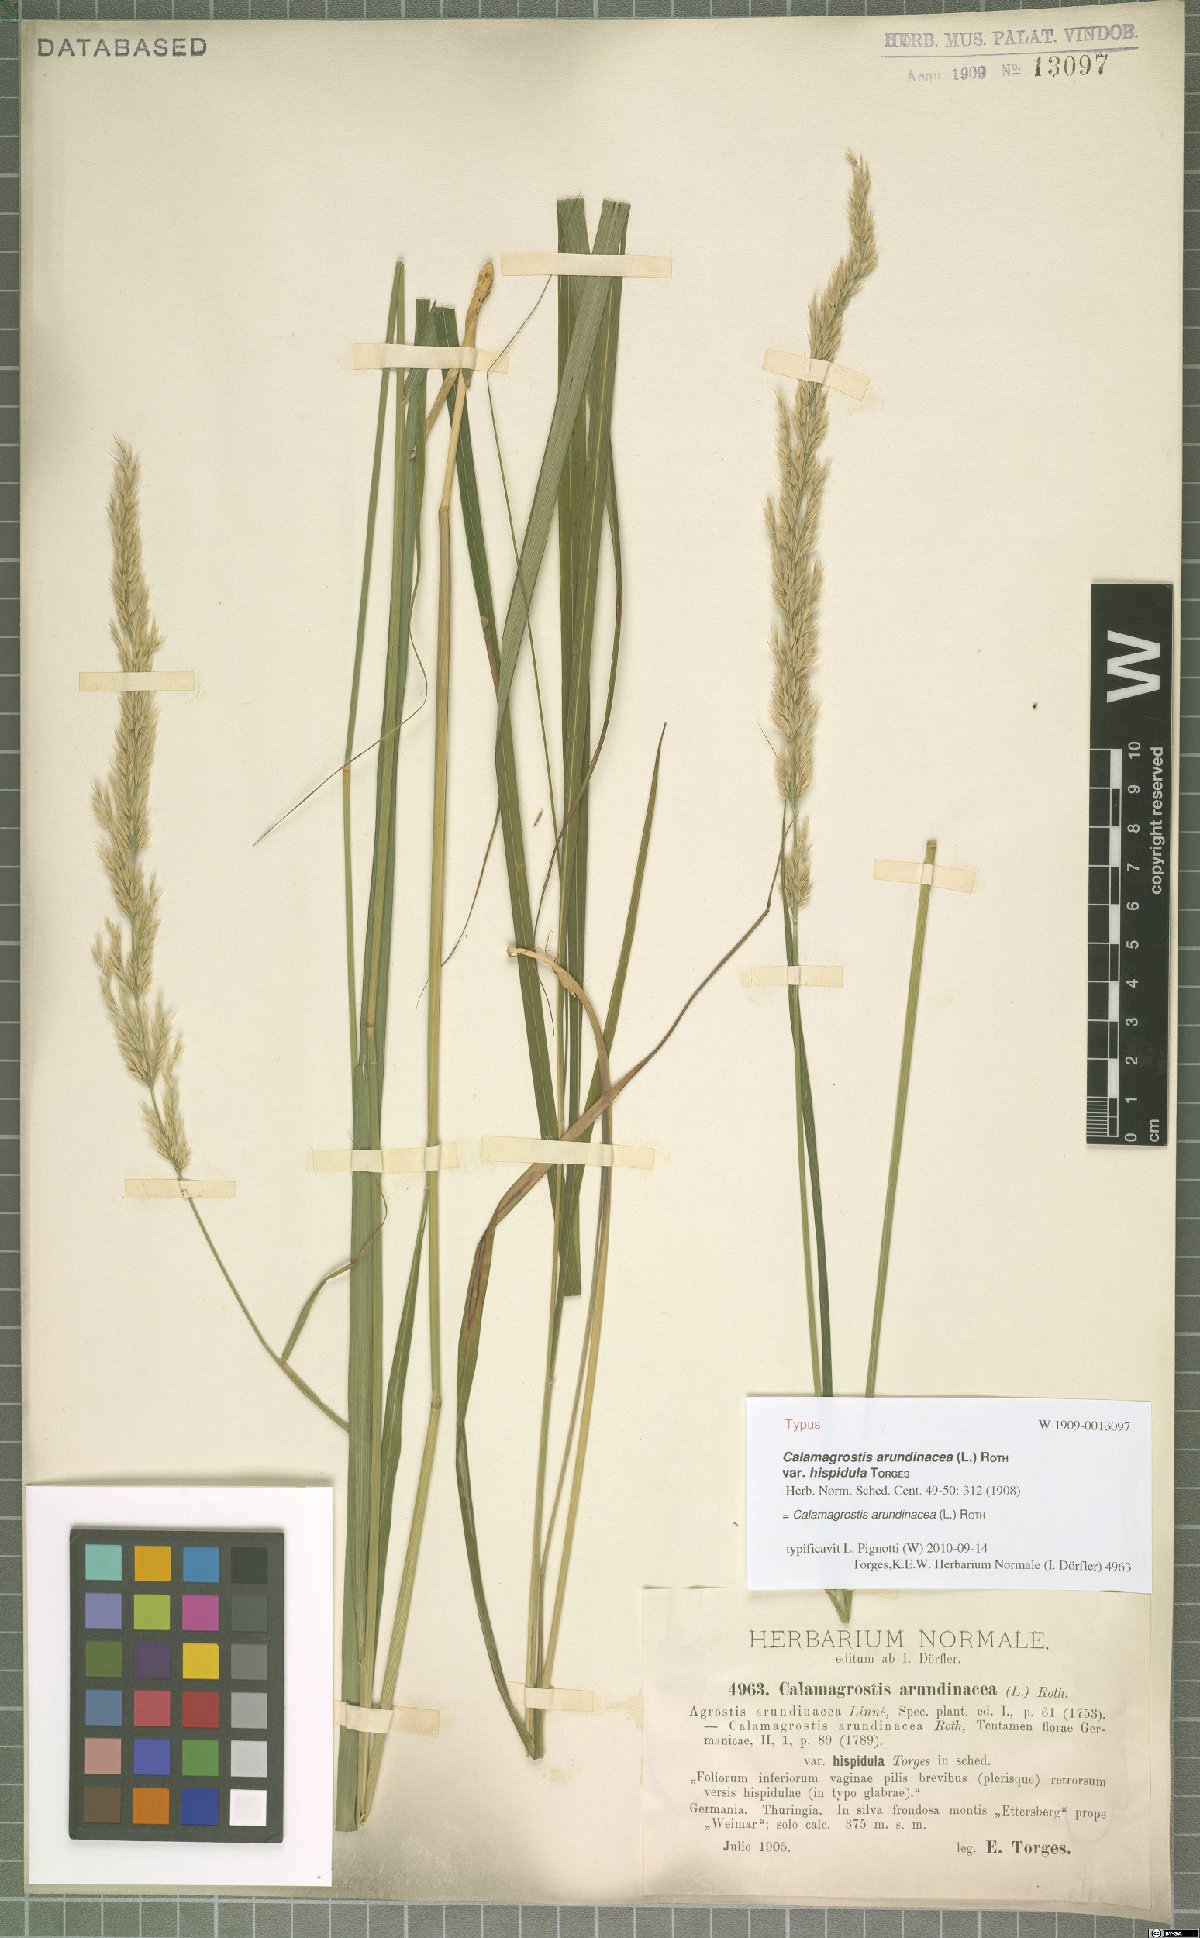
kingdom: Plantae
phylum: Tracheophyta
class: Liliopsida
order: Poales
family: Poaceae
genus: Calamagrostis
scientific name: Calamagrostis arundinacea
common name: Metskastik
